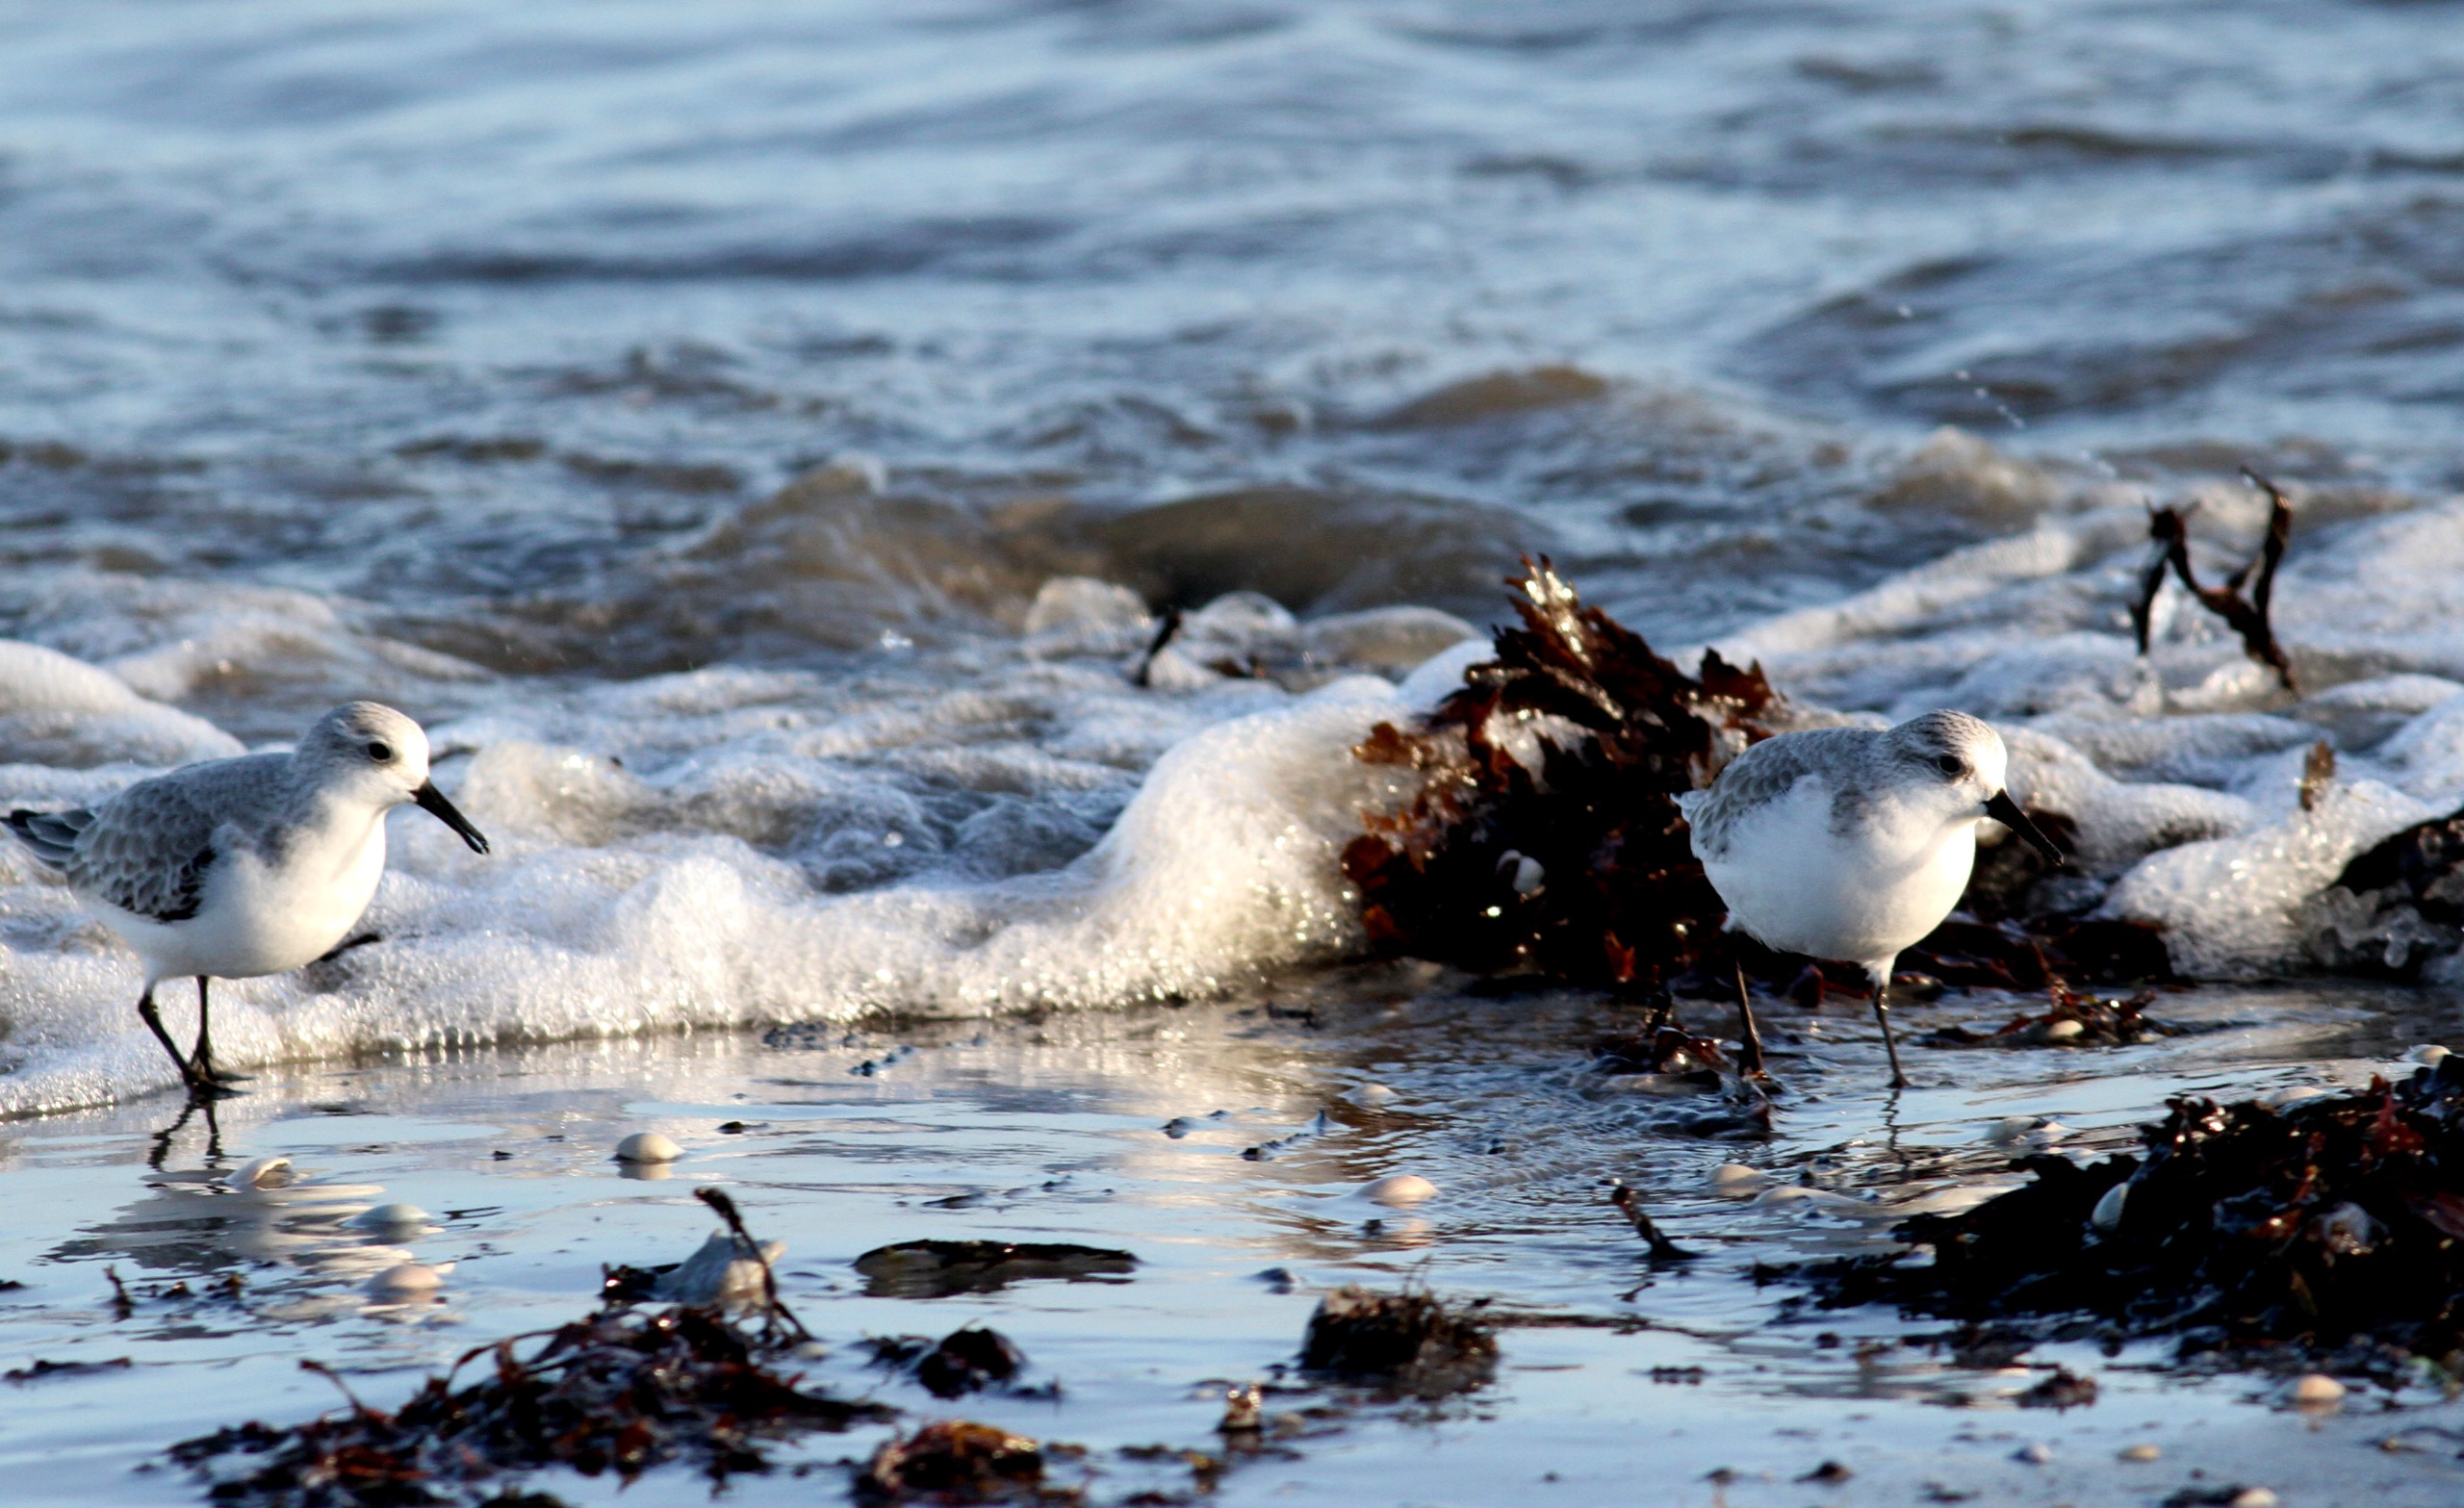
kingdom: Animalia
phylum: Chordata
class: Aves
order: Charadriiformes
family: Scolopacidae
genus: Calidris
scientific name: Calidris alba
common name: Sandløber
